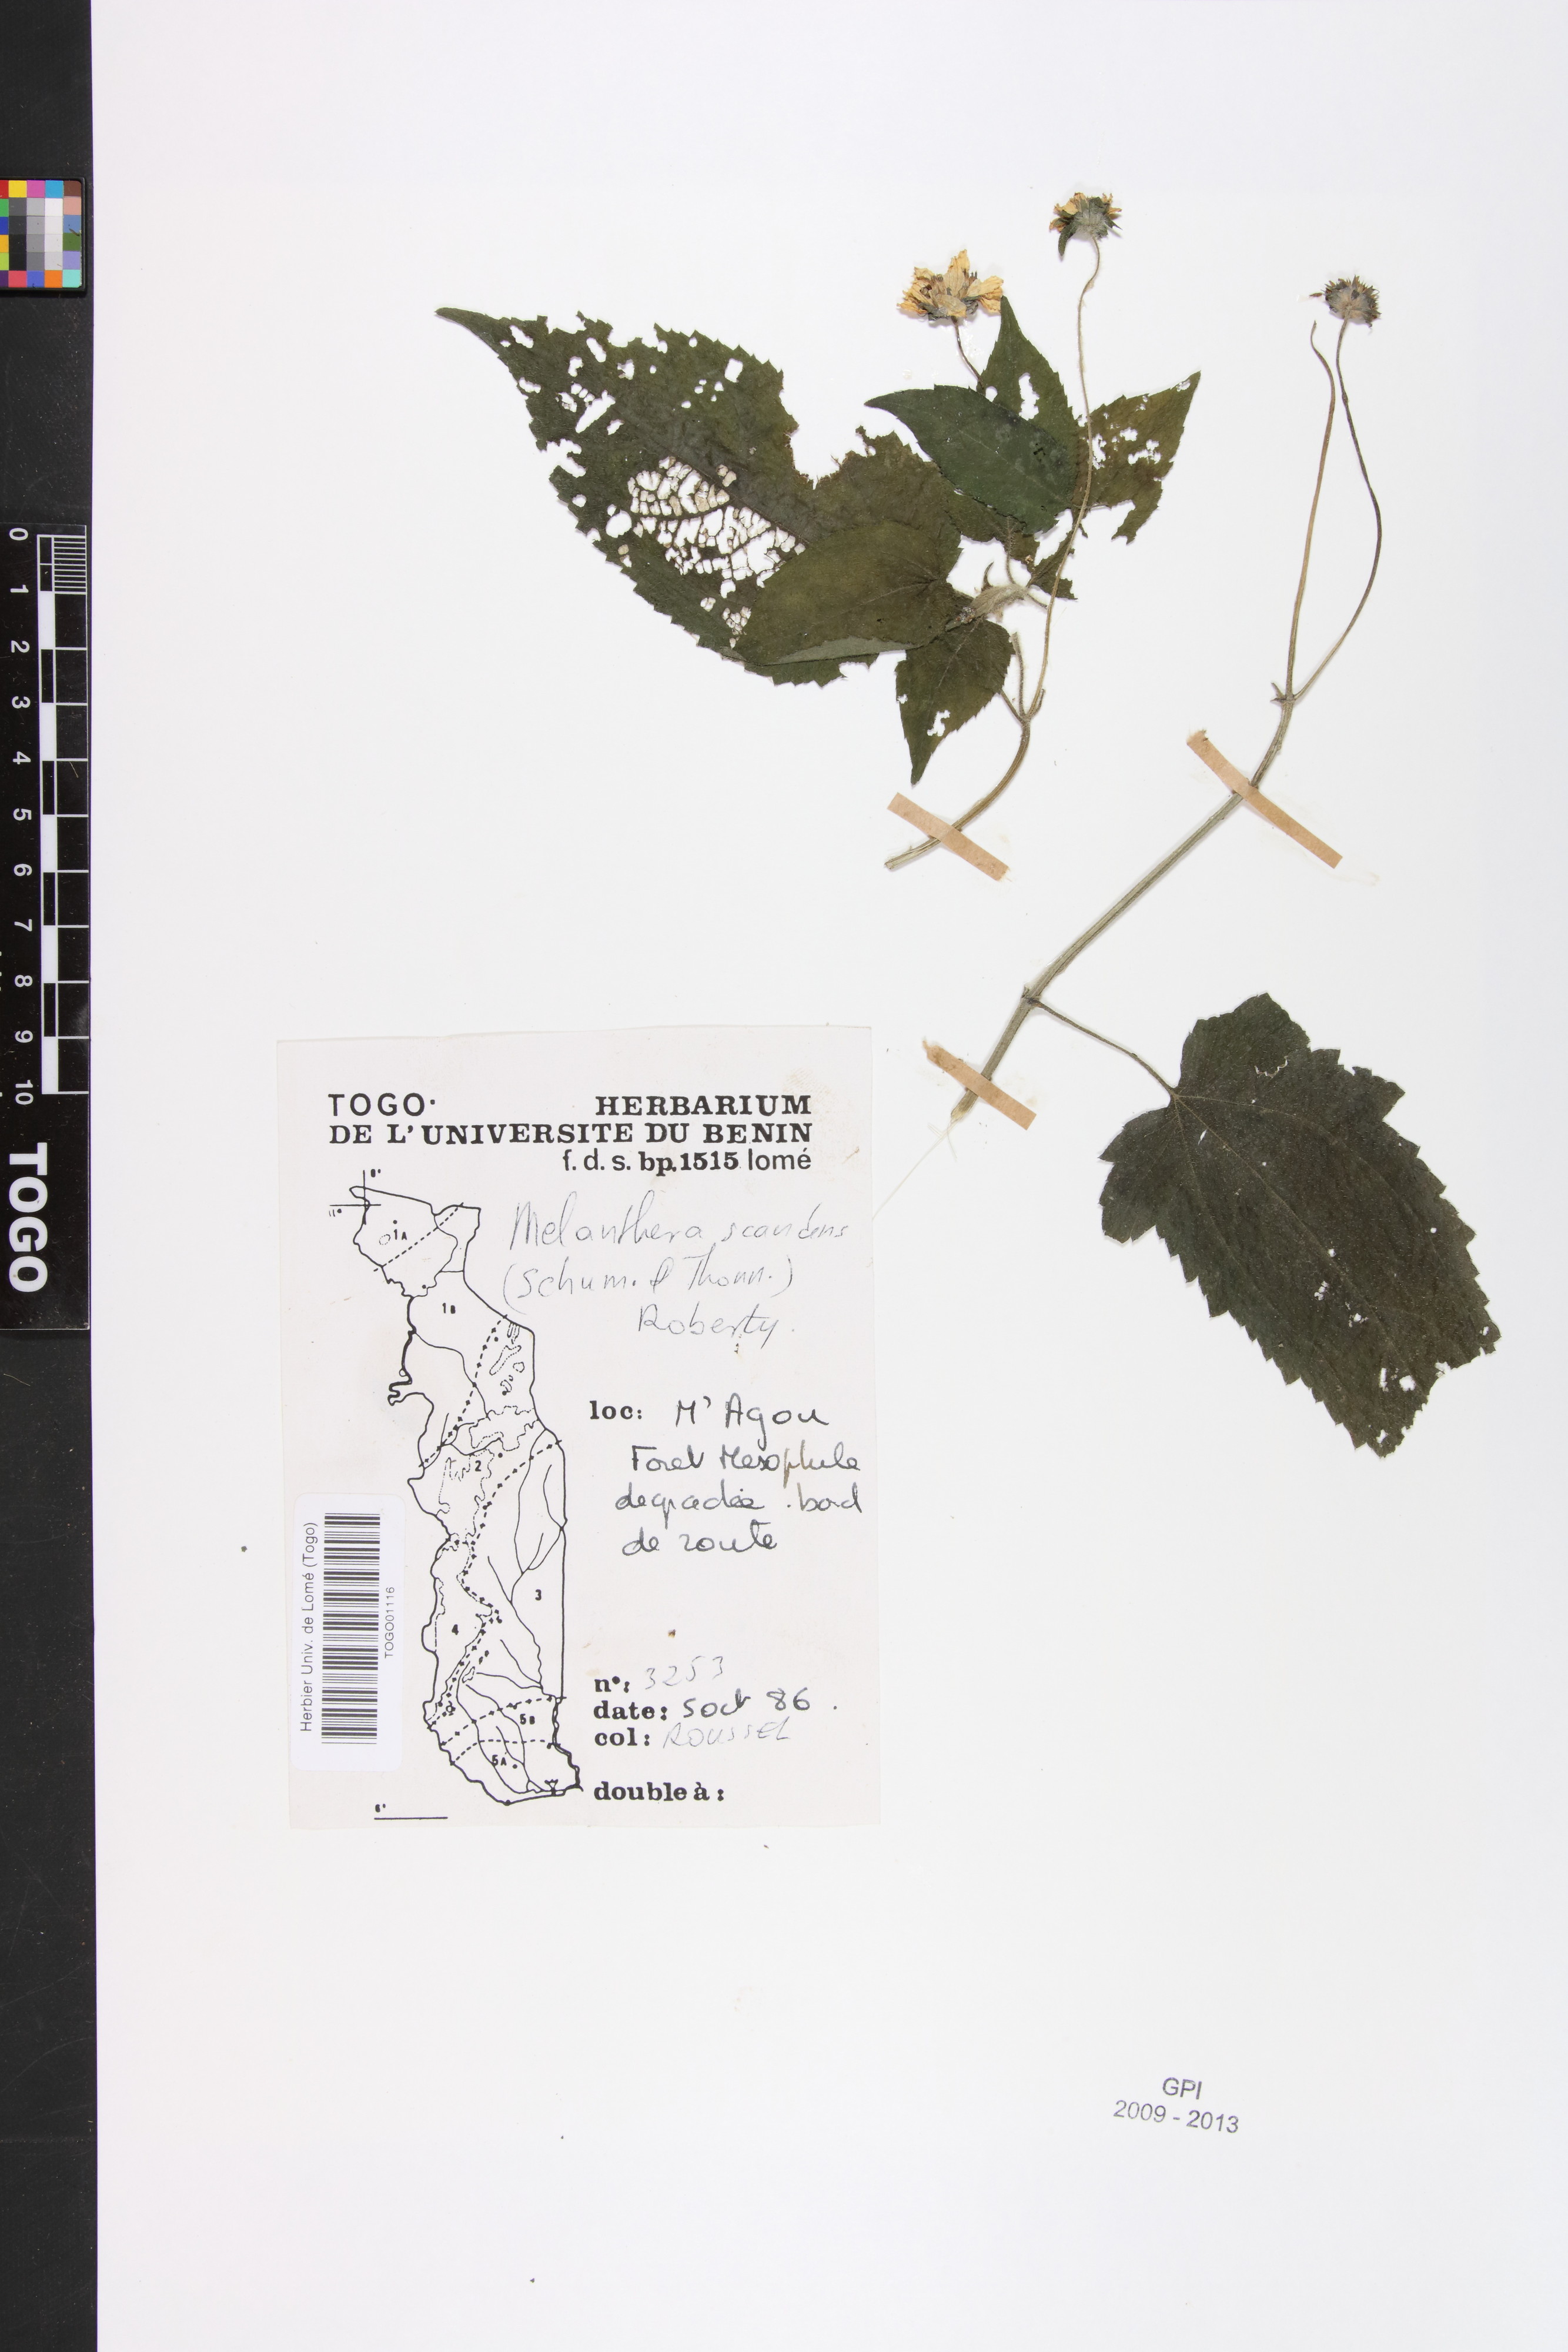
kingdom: Plantae
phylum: Tracheophyta
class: Magnoliopsida
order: Asterales
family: Asteraceae
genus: Melanthera
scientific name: Melanthera scandens
